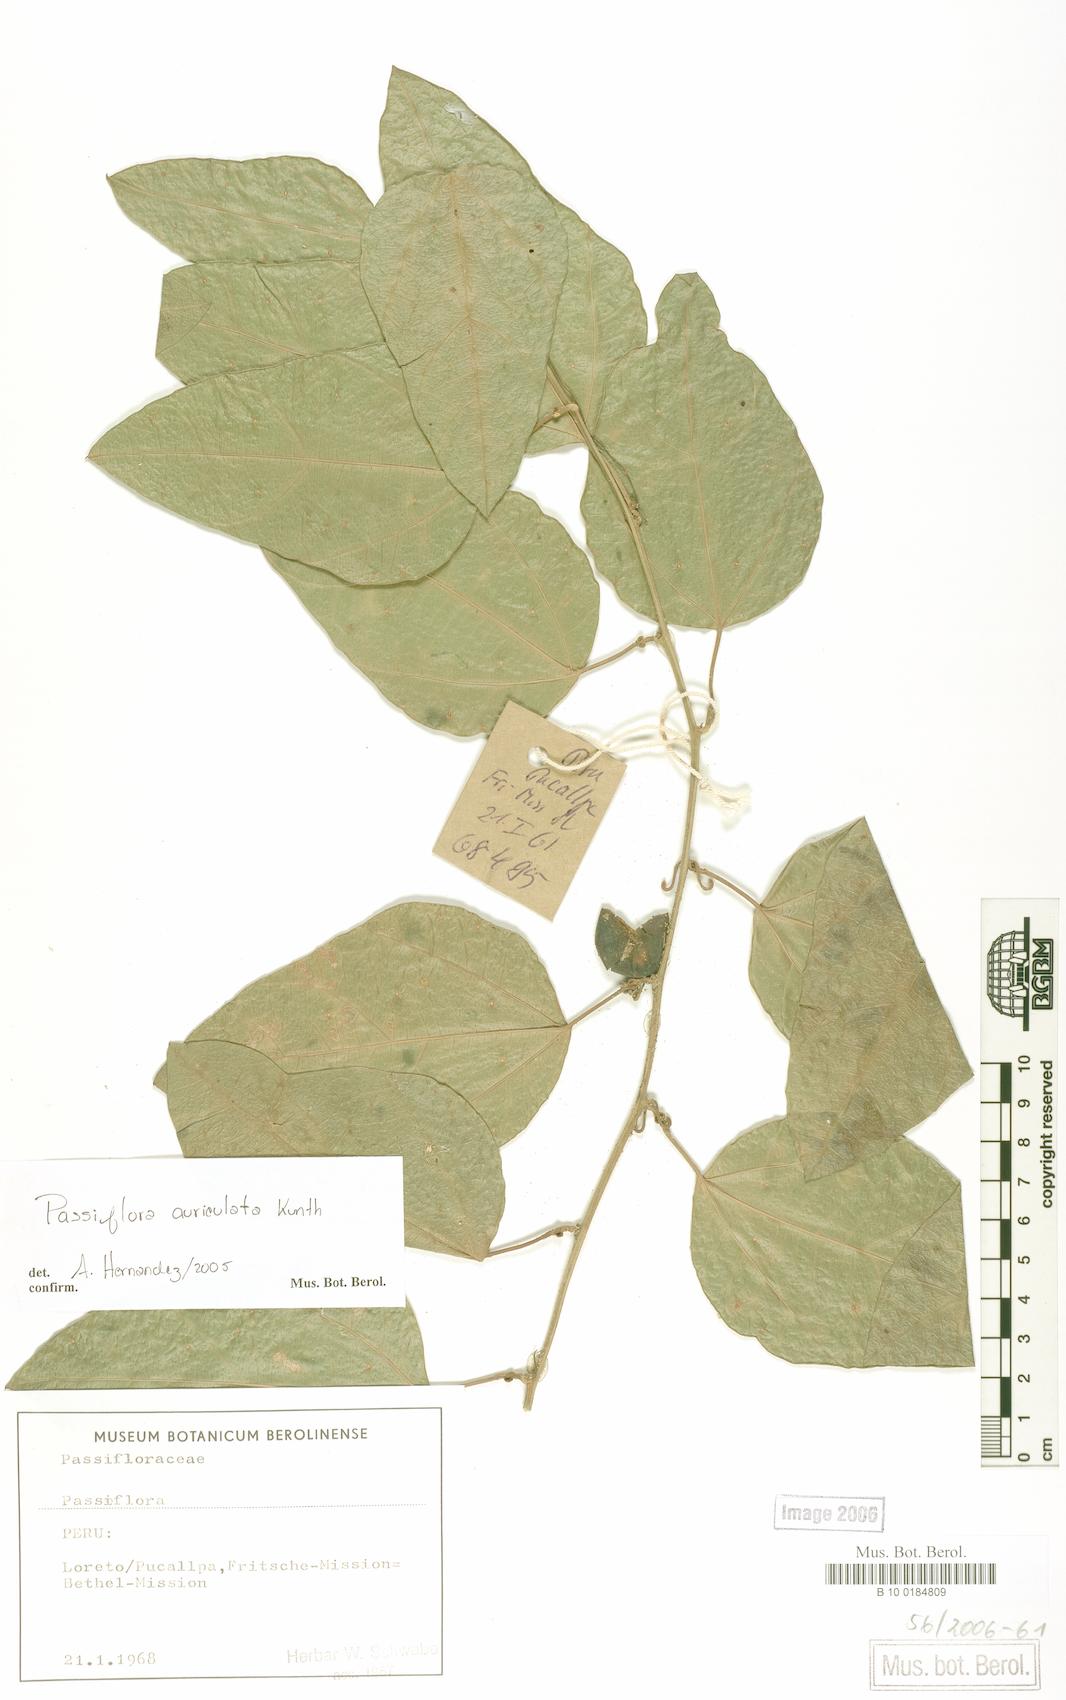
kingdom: Plantae
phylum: Tracheophyta
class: Magnoliopsida
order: Malpighiales
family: Passifloraceae
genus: Passiflora
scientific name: Passiflora auriculata
